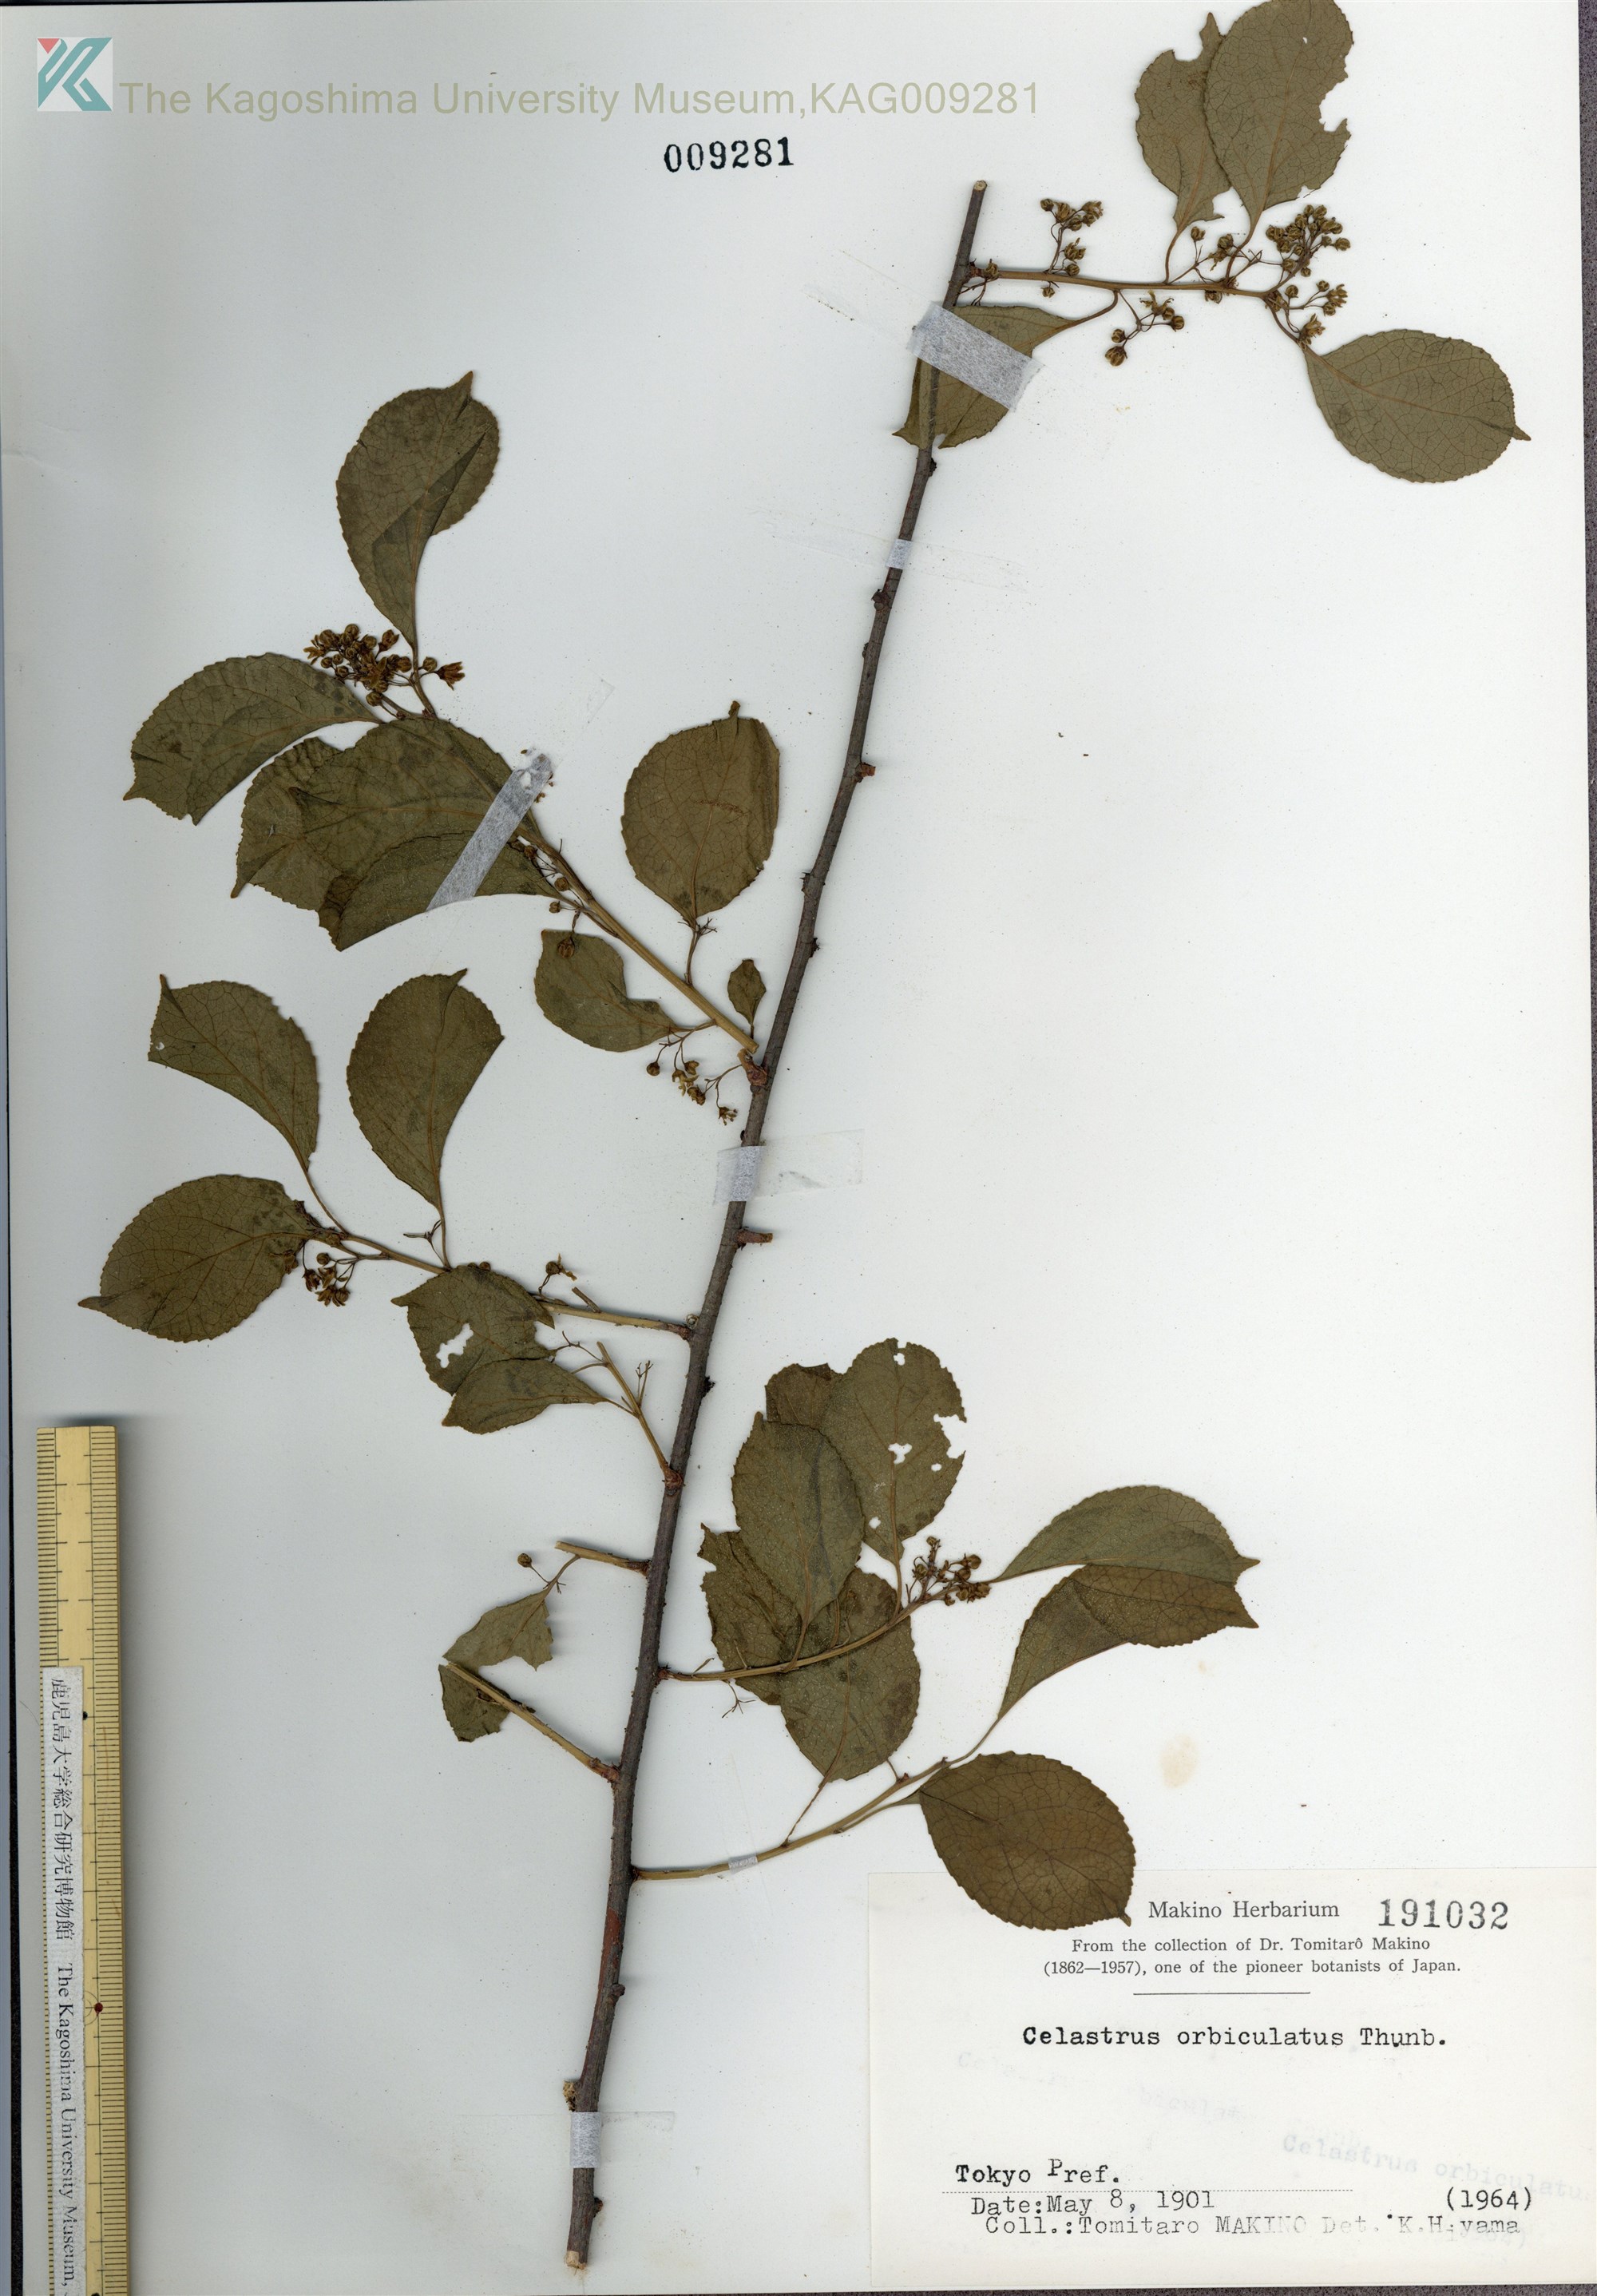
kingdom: Plantae
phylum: Tracheophyta
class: Magnoliopsida
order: Celastrales
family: Celastraceae
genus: Celastrus
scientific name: Celastrus orbiculatus
